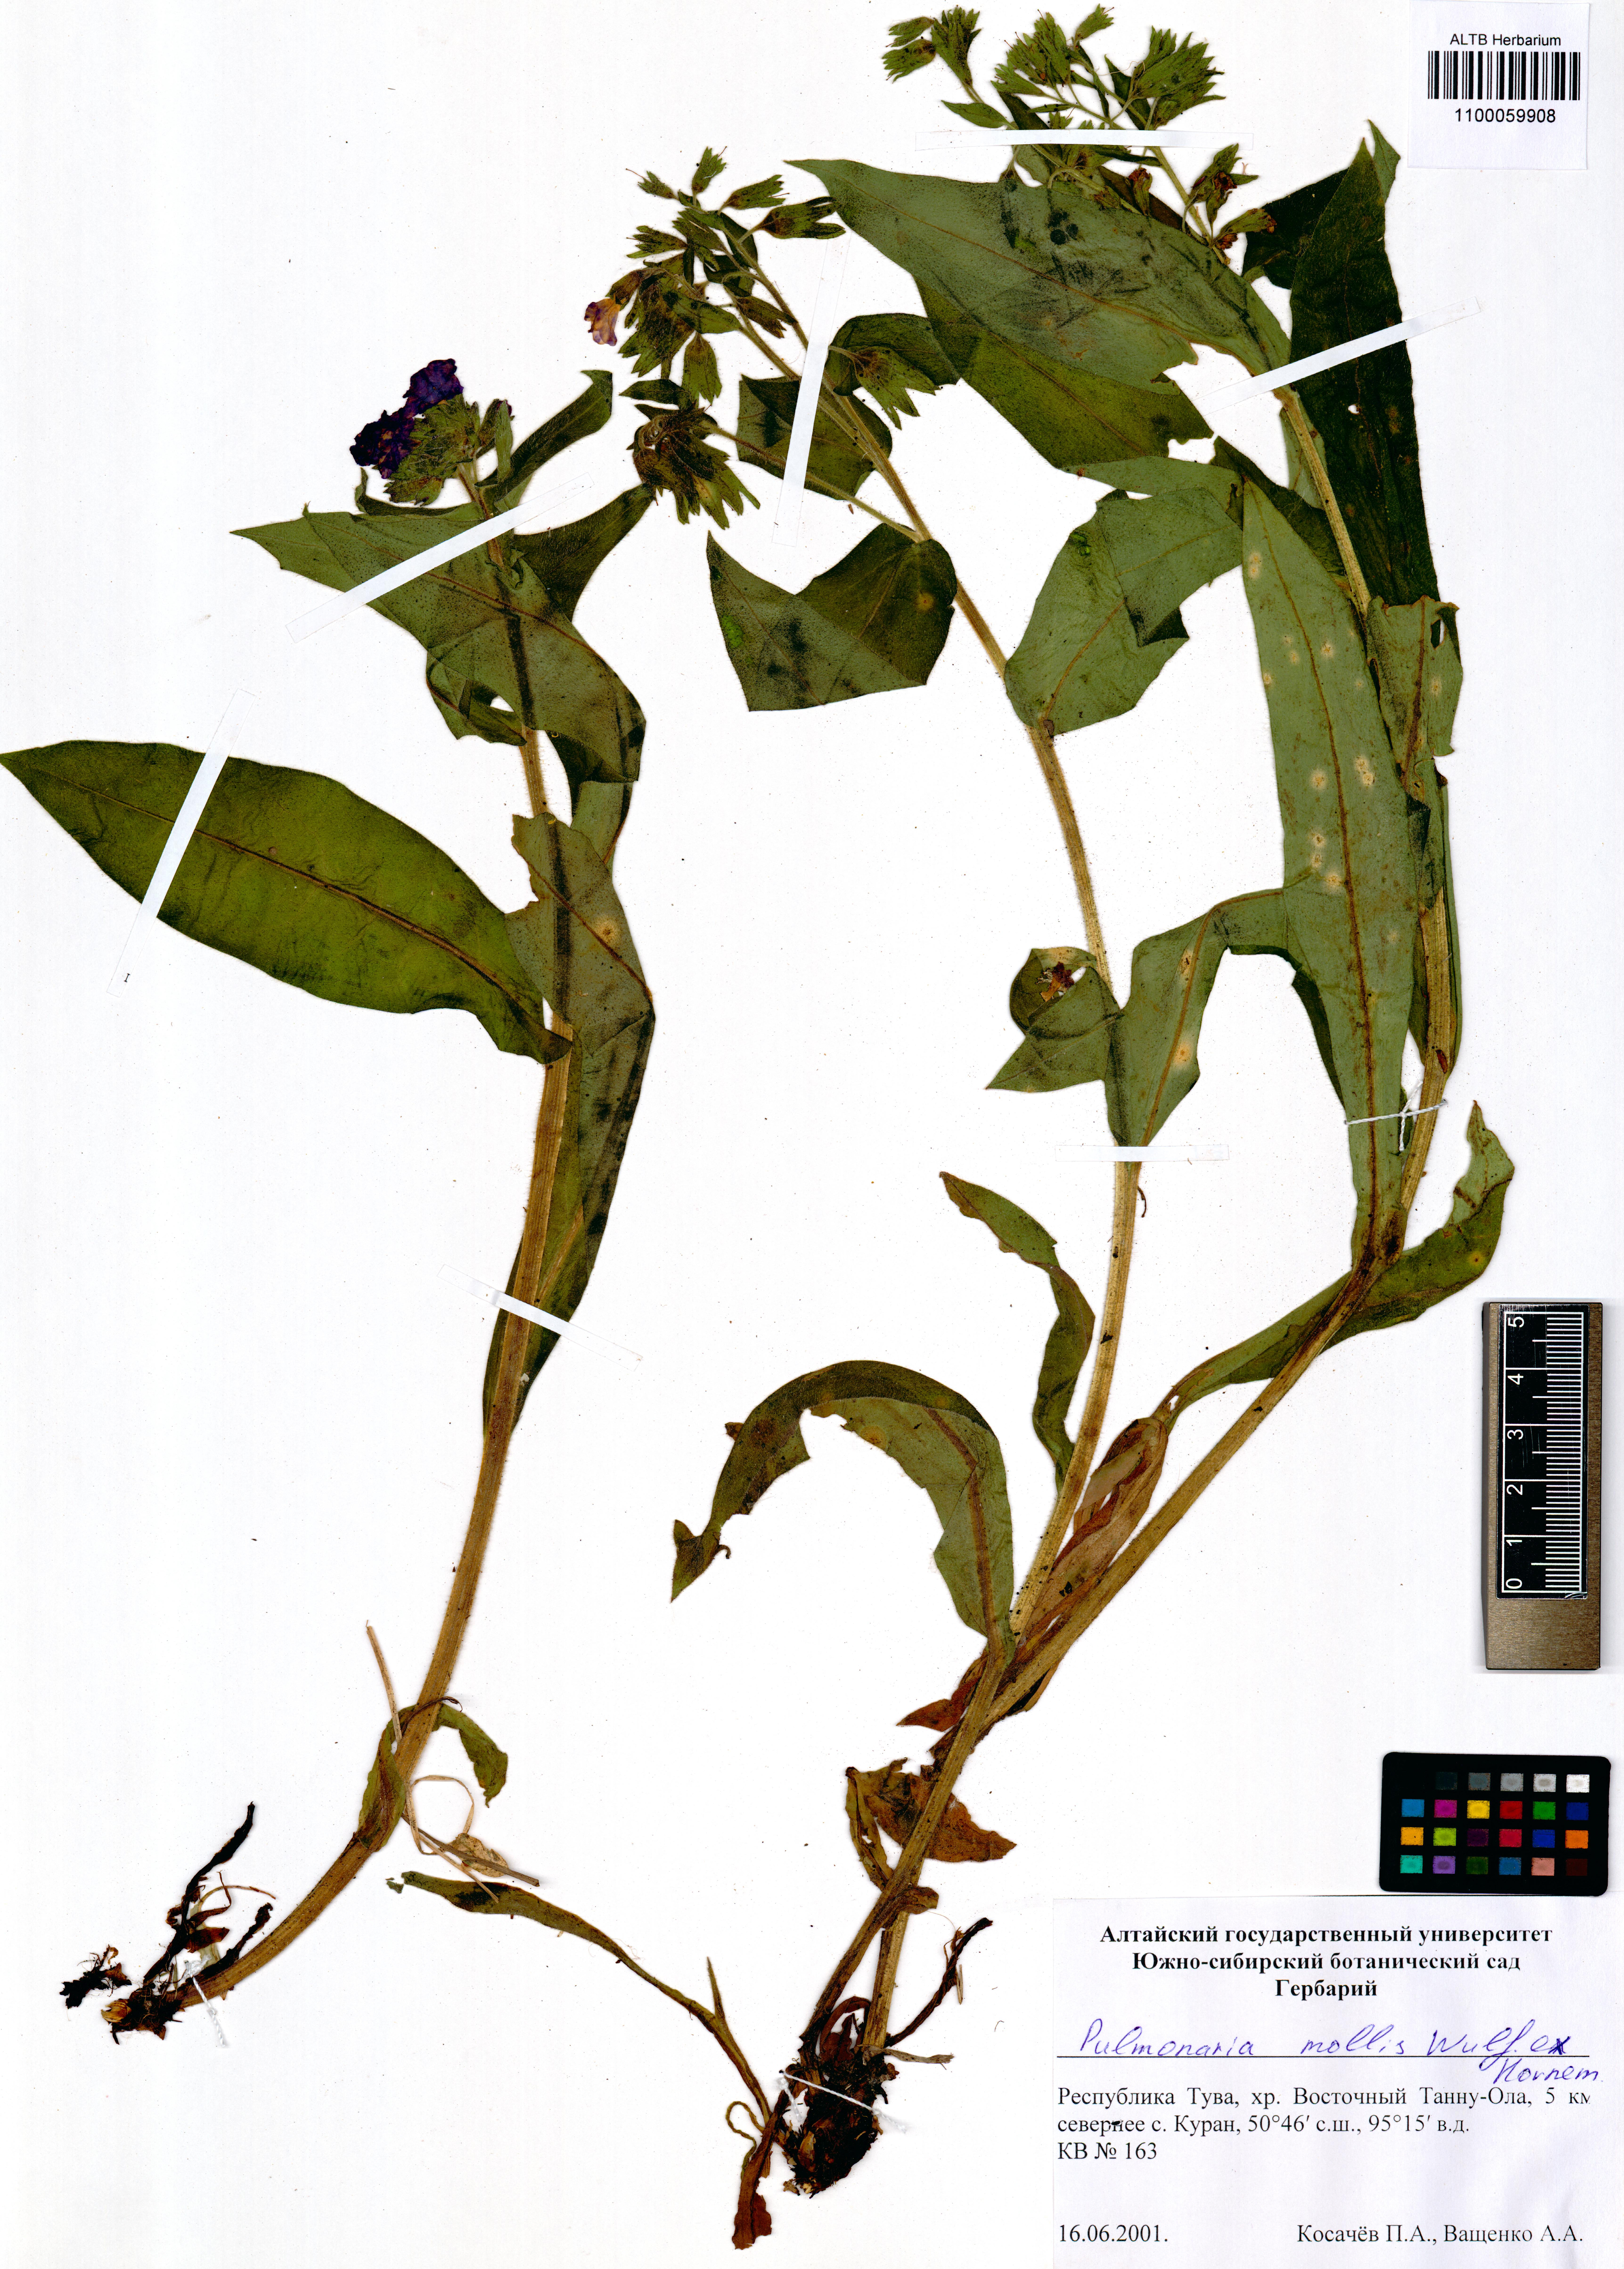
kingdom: Plantae
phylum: Tracheophyta
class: Magnoliopsida
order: Boraginales
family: Boraginaceae
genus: Pulmonaria
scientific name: Pulmonaria mollis
